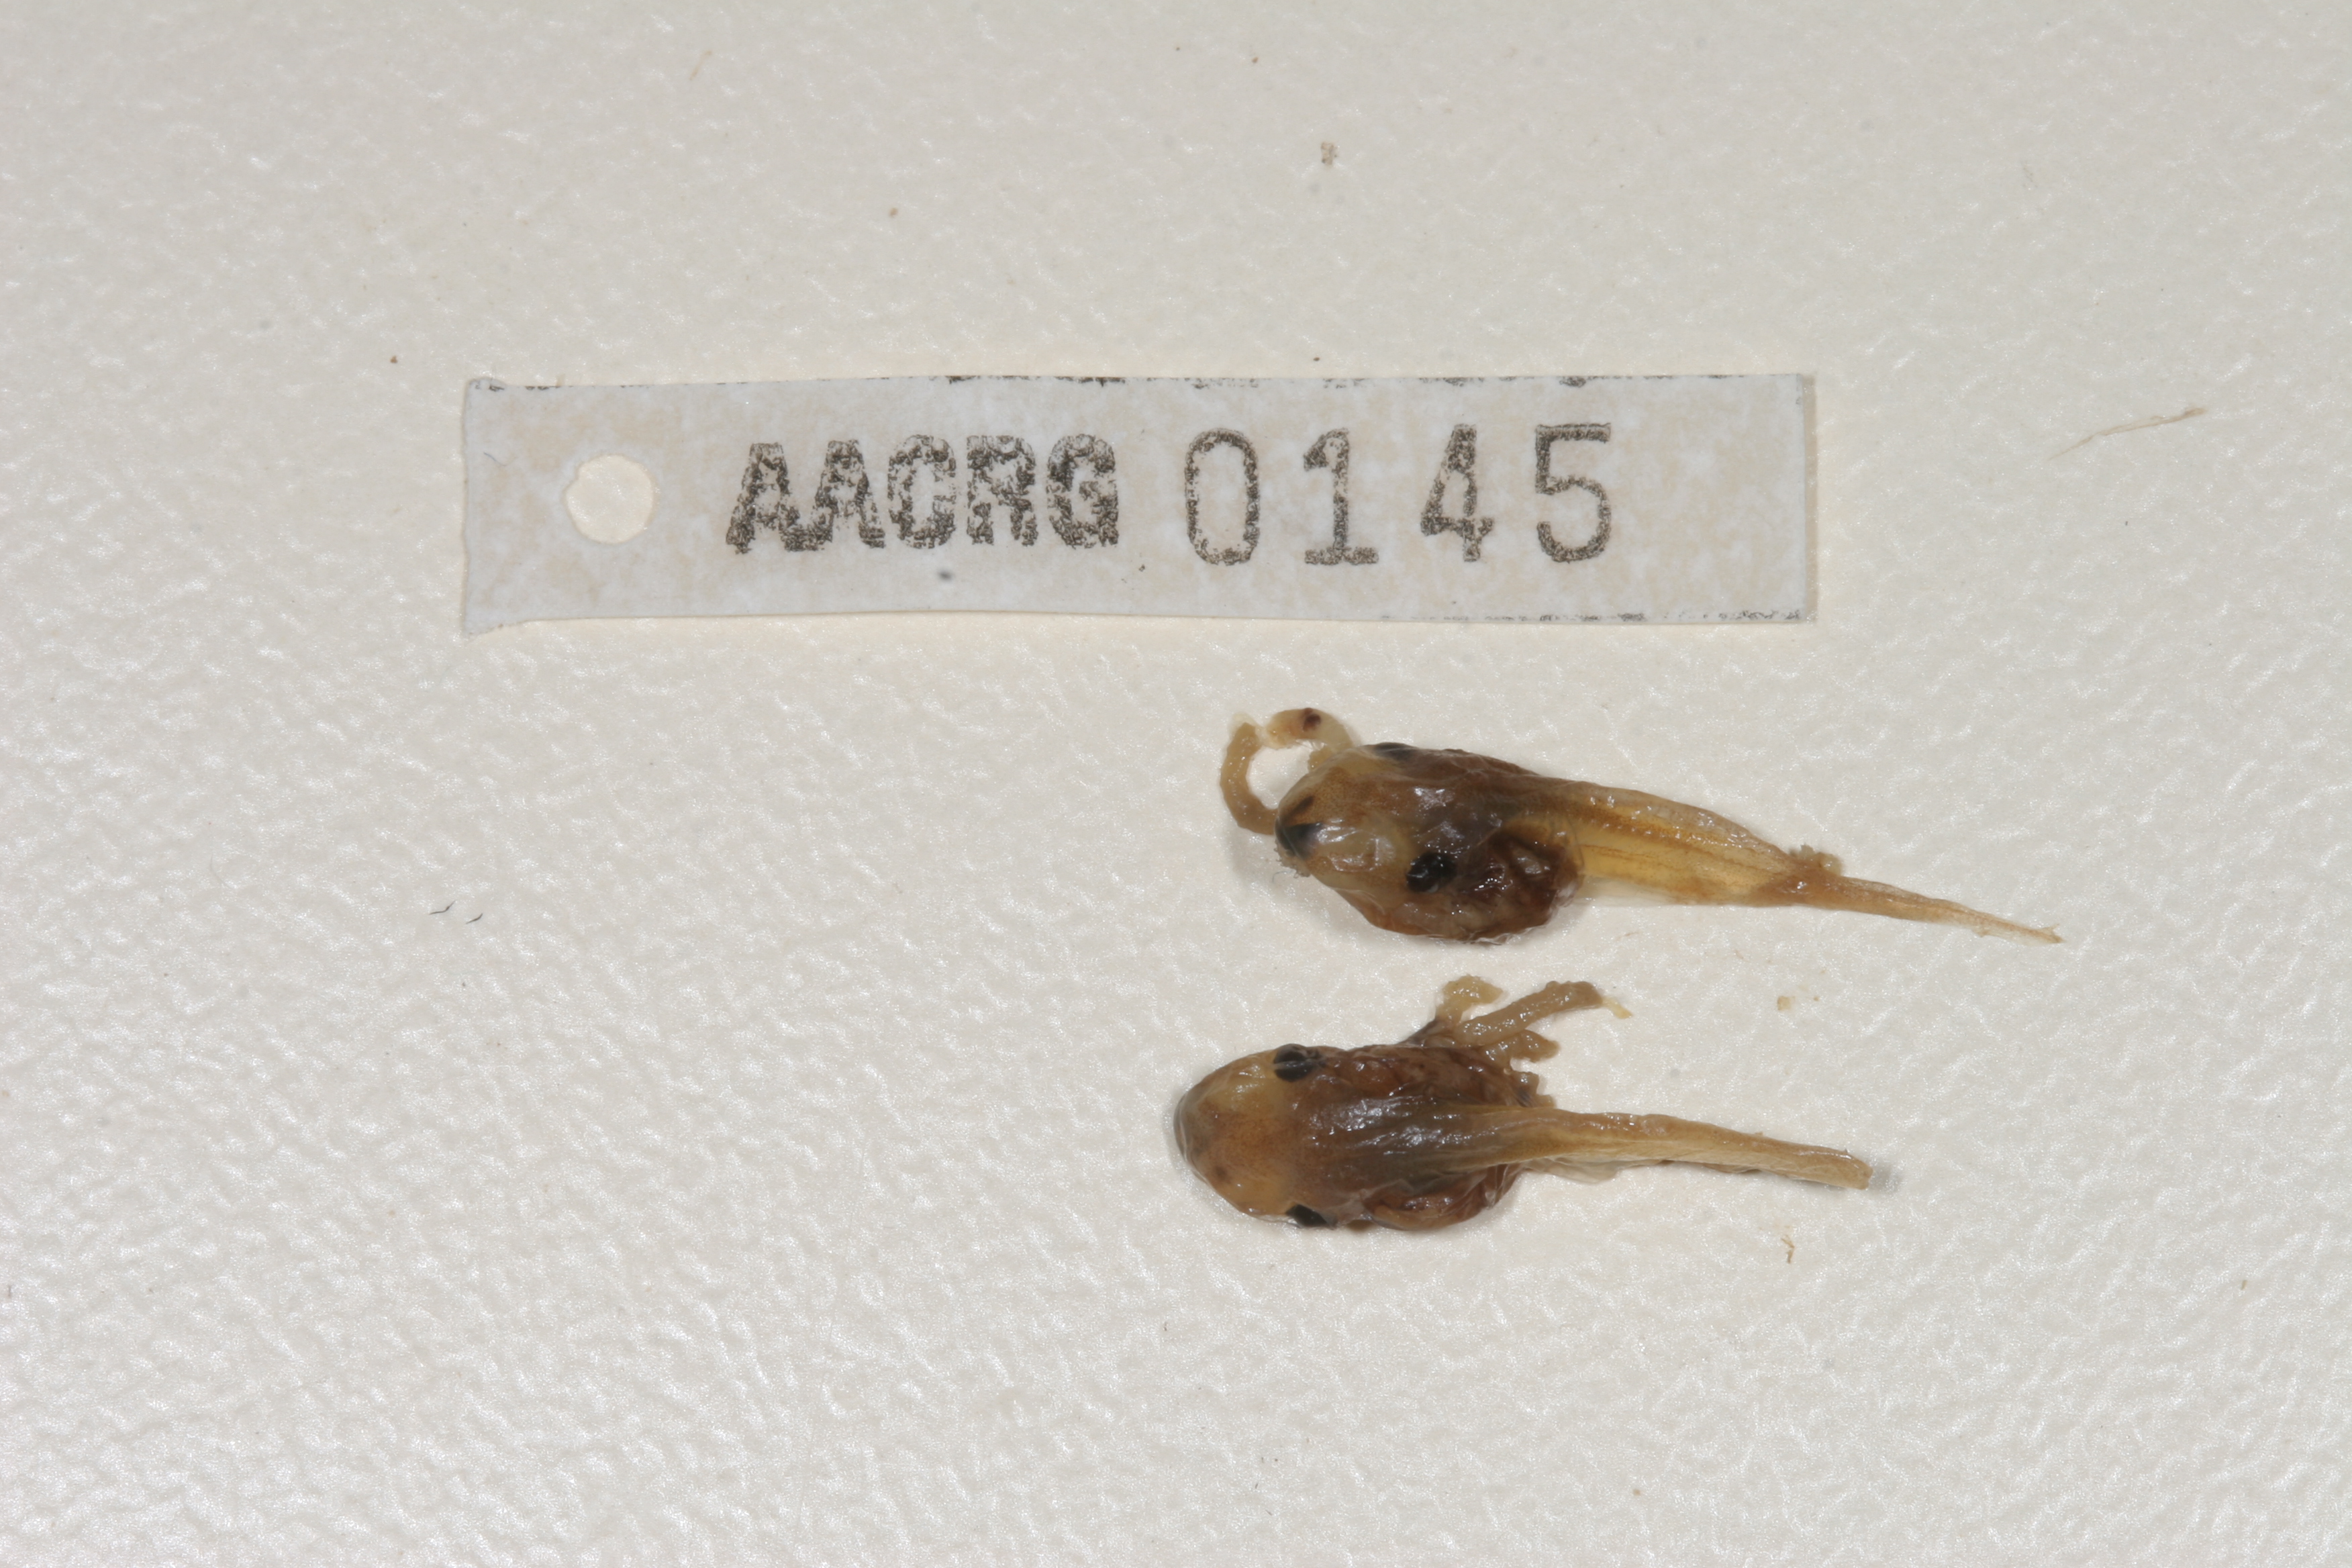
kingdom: Animalia
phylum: Chordata
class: Amphibia
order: Anura
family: Hyperoliidae
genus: Kassina
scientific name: Kassina senegalensis
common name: Senegal land frog
